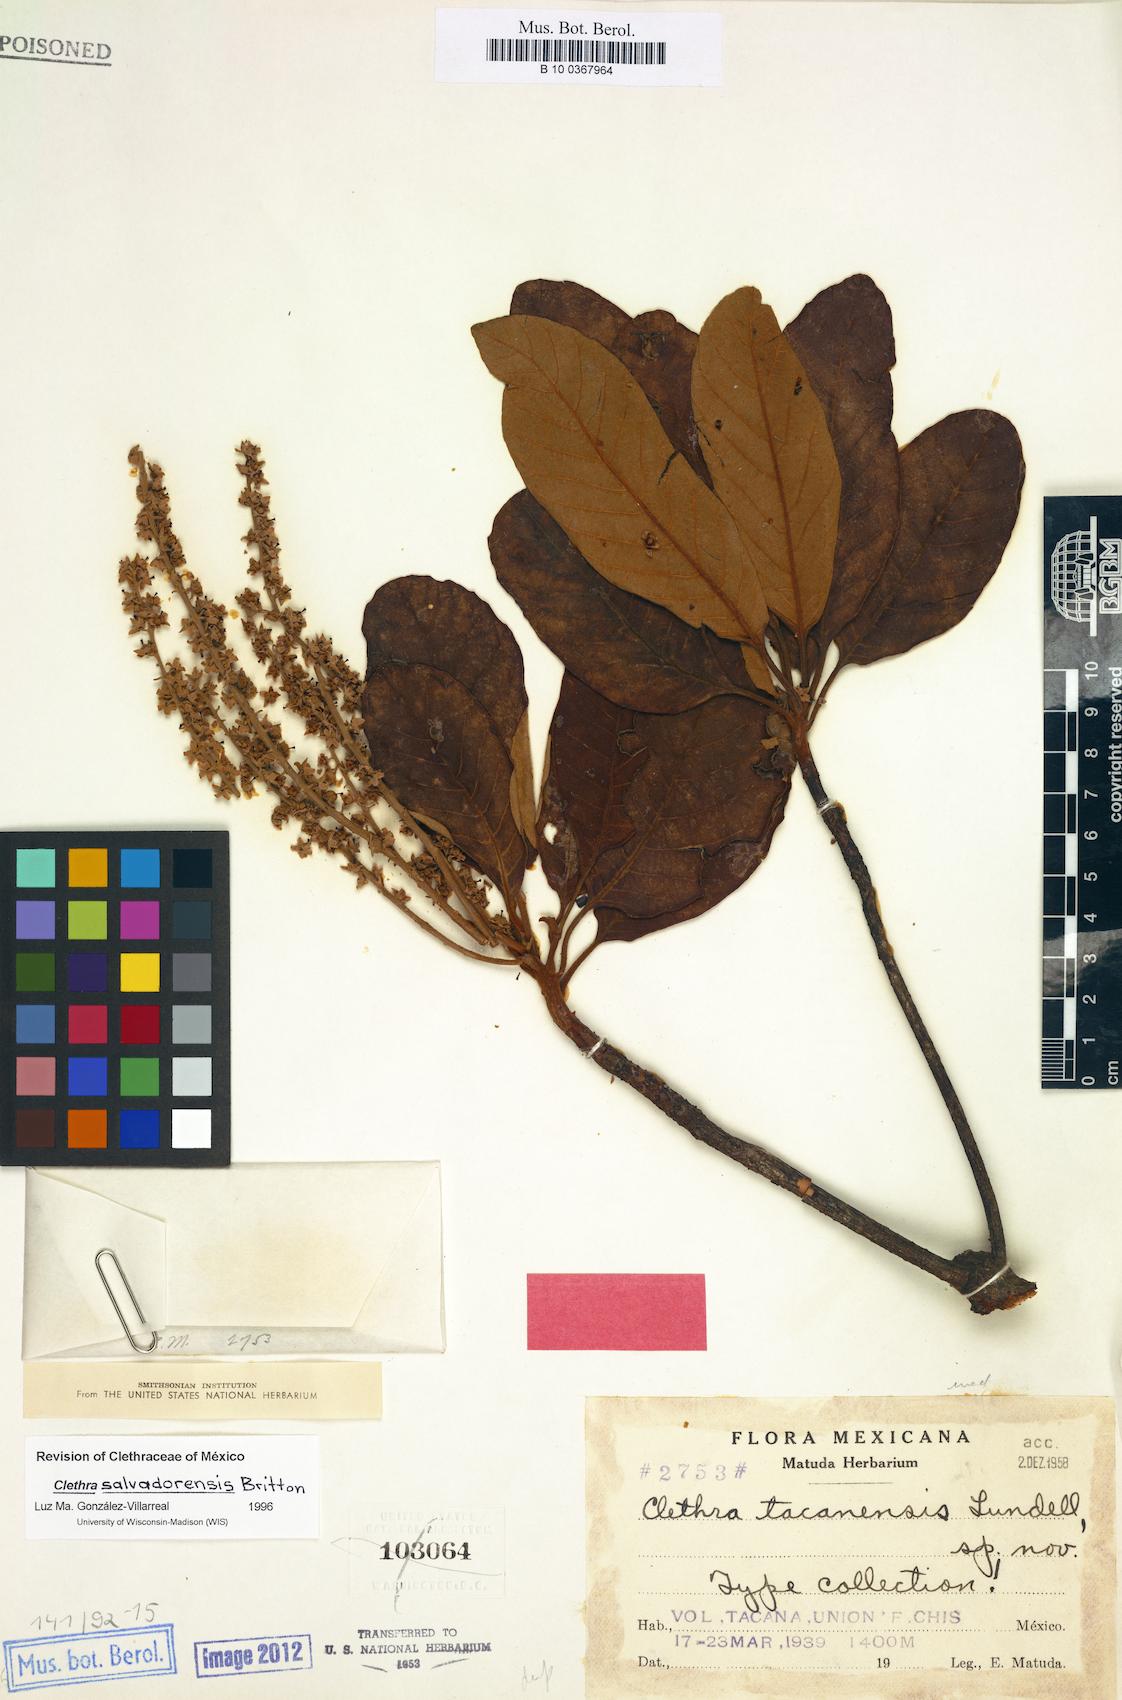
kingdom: Plantae
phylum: Tracheophyta
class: Magnoliopsida
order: Ericales
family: Clethraceae
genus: Clethra
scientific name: Clethra lanata
